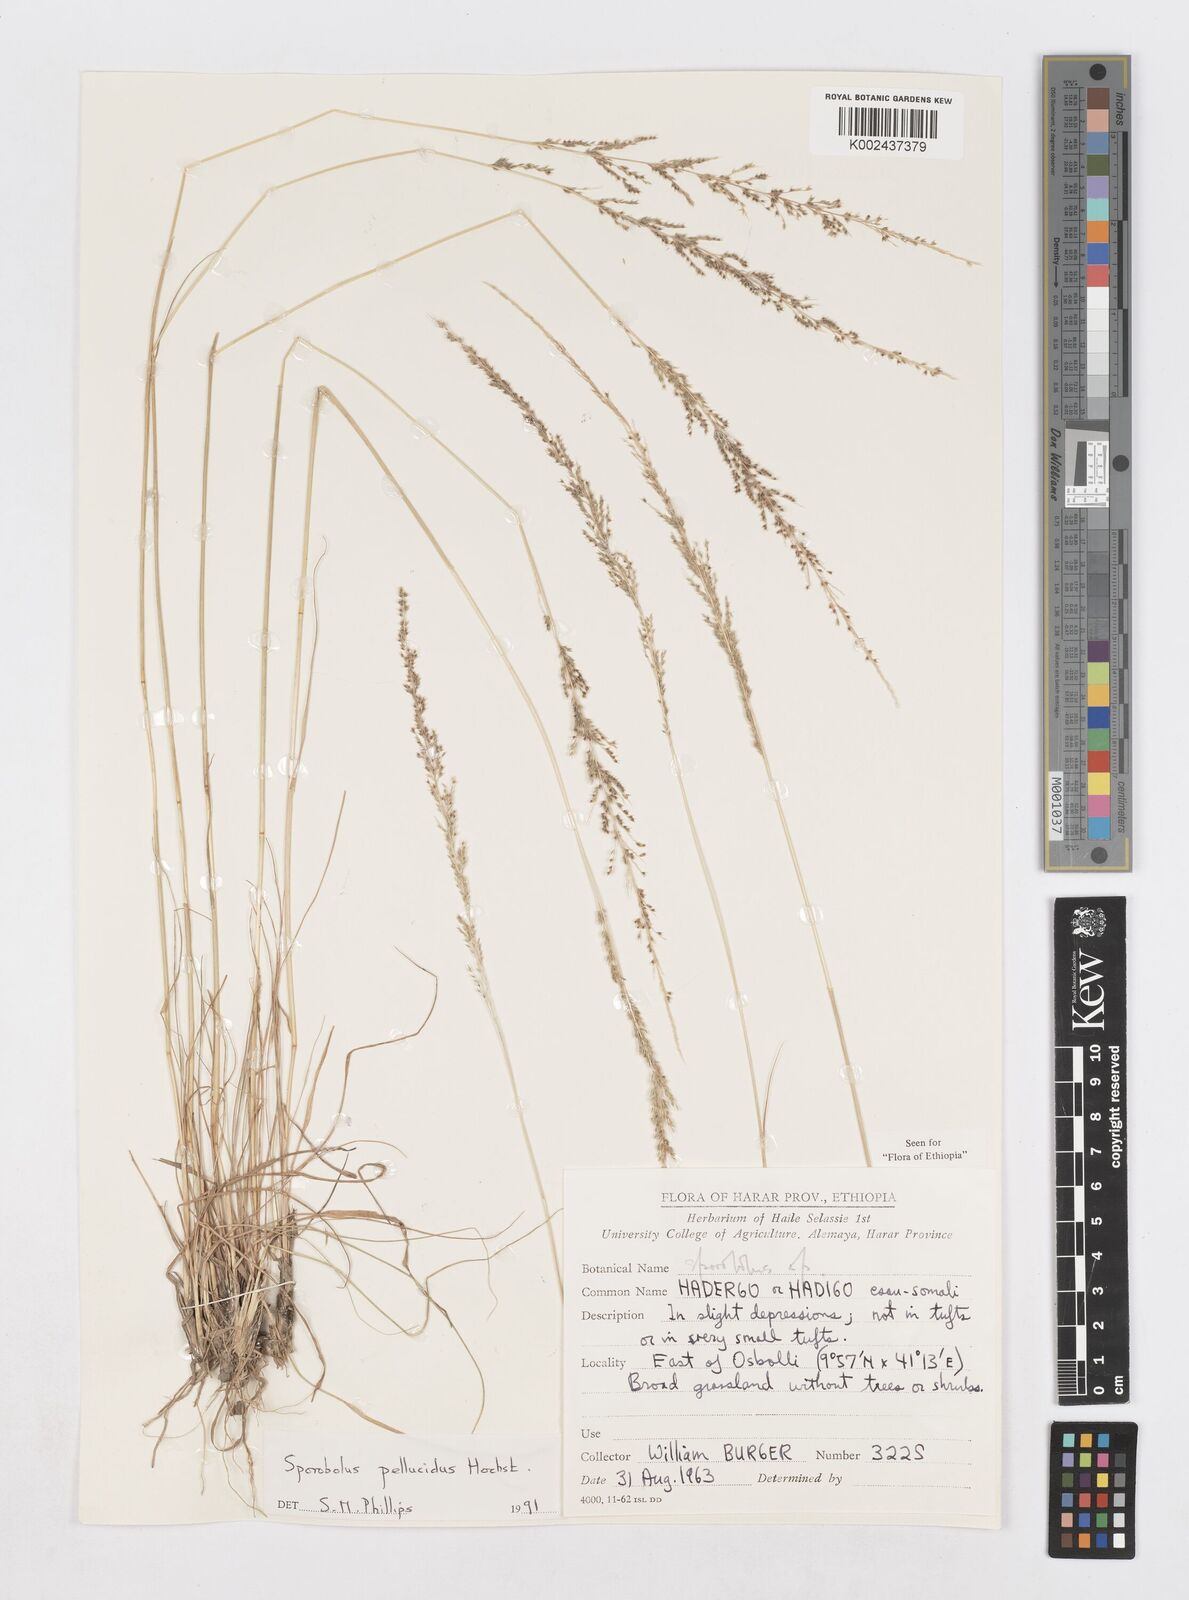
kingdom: Plantae
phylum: Tracheophyta
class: Liliopsida
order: Poales
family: Poaceae
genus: Sporobolus
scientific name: Sporobolus pellucidus
